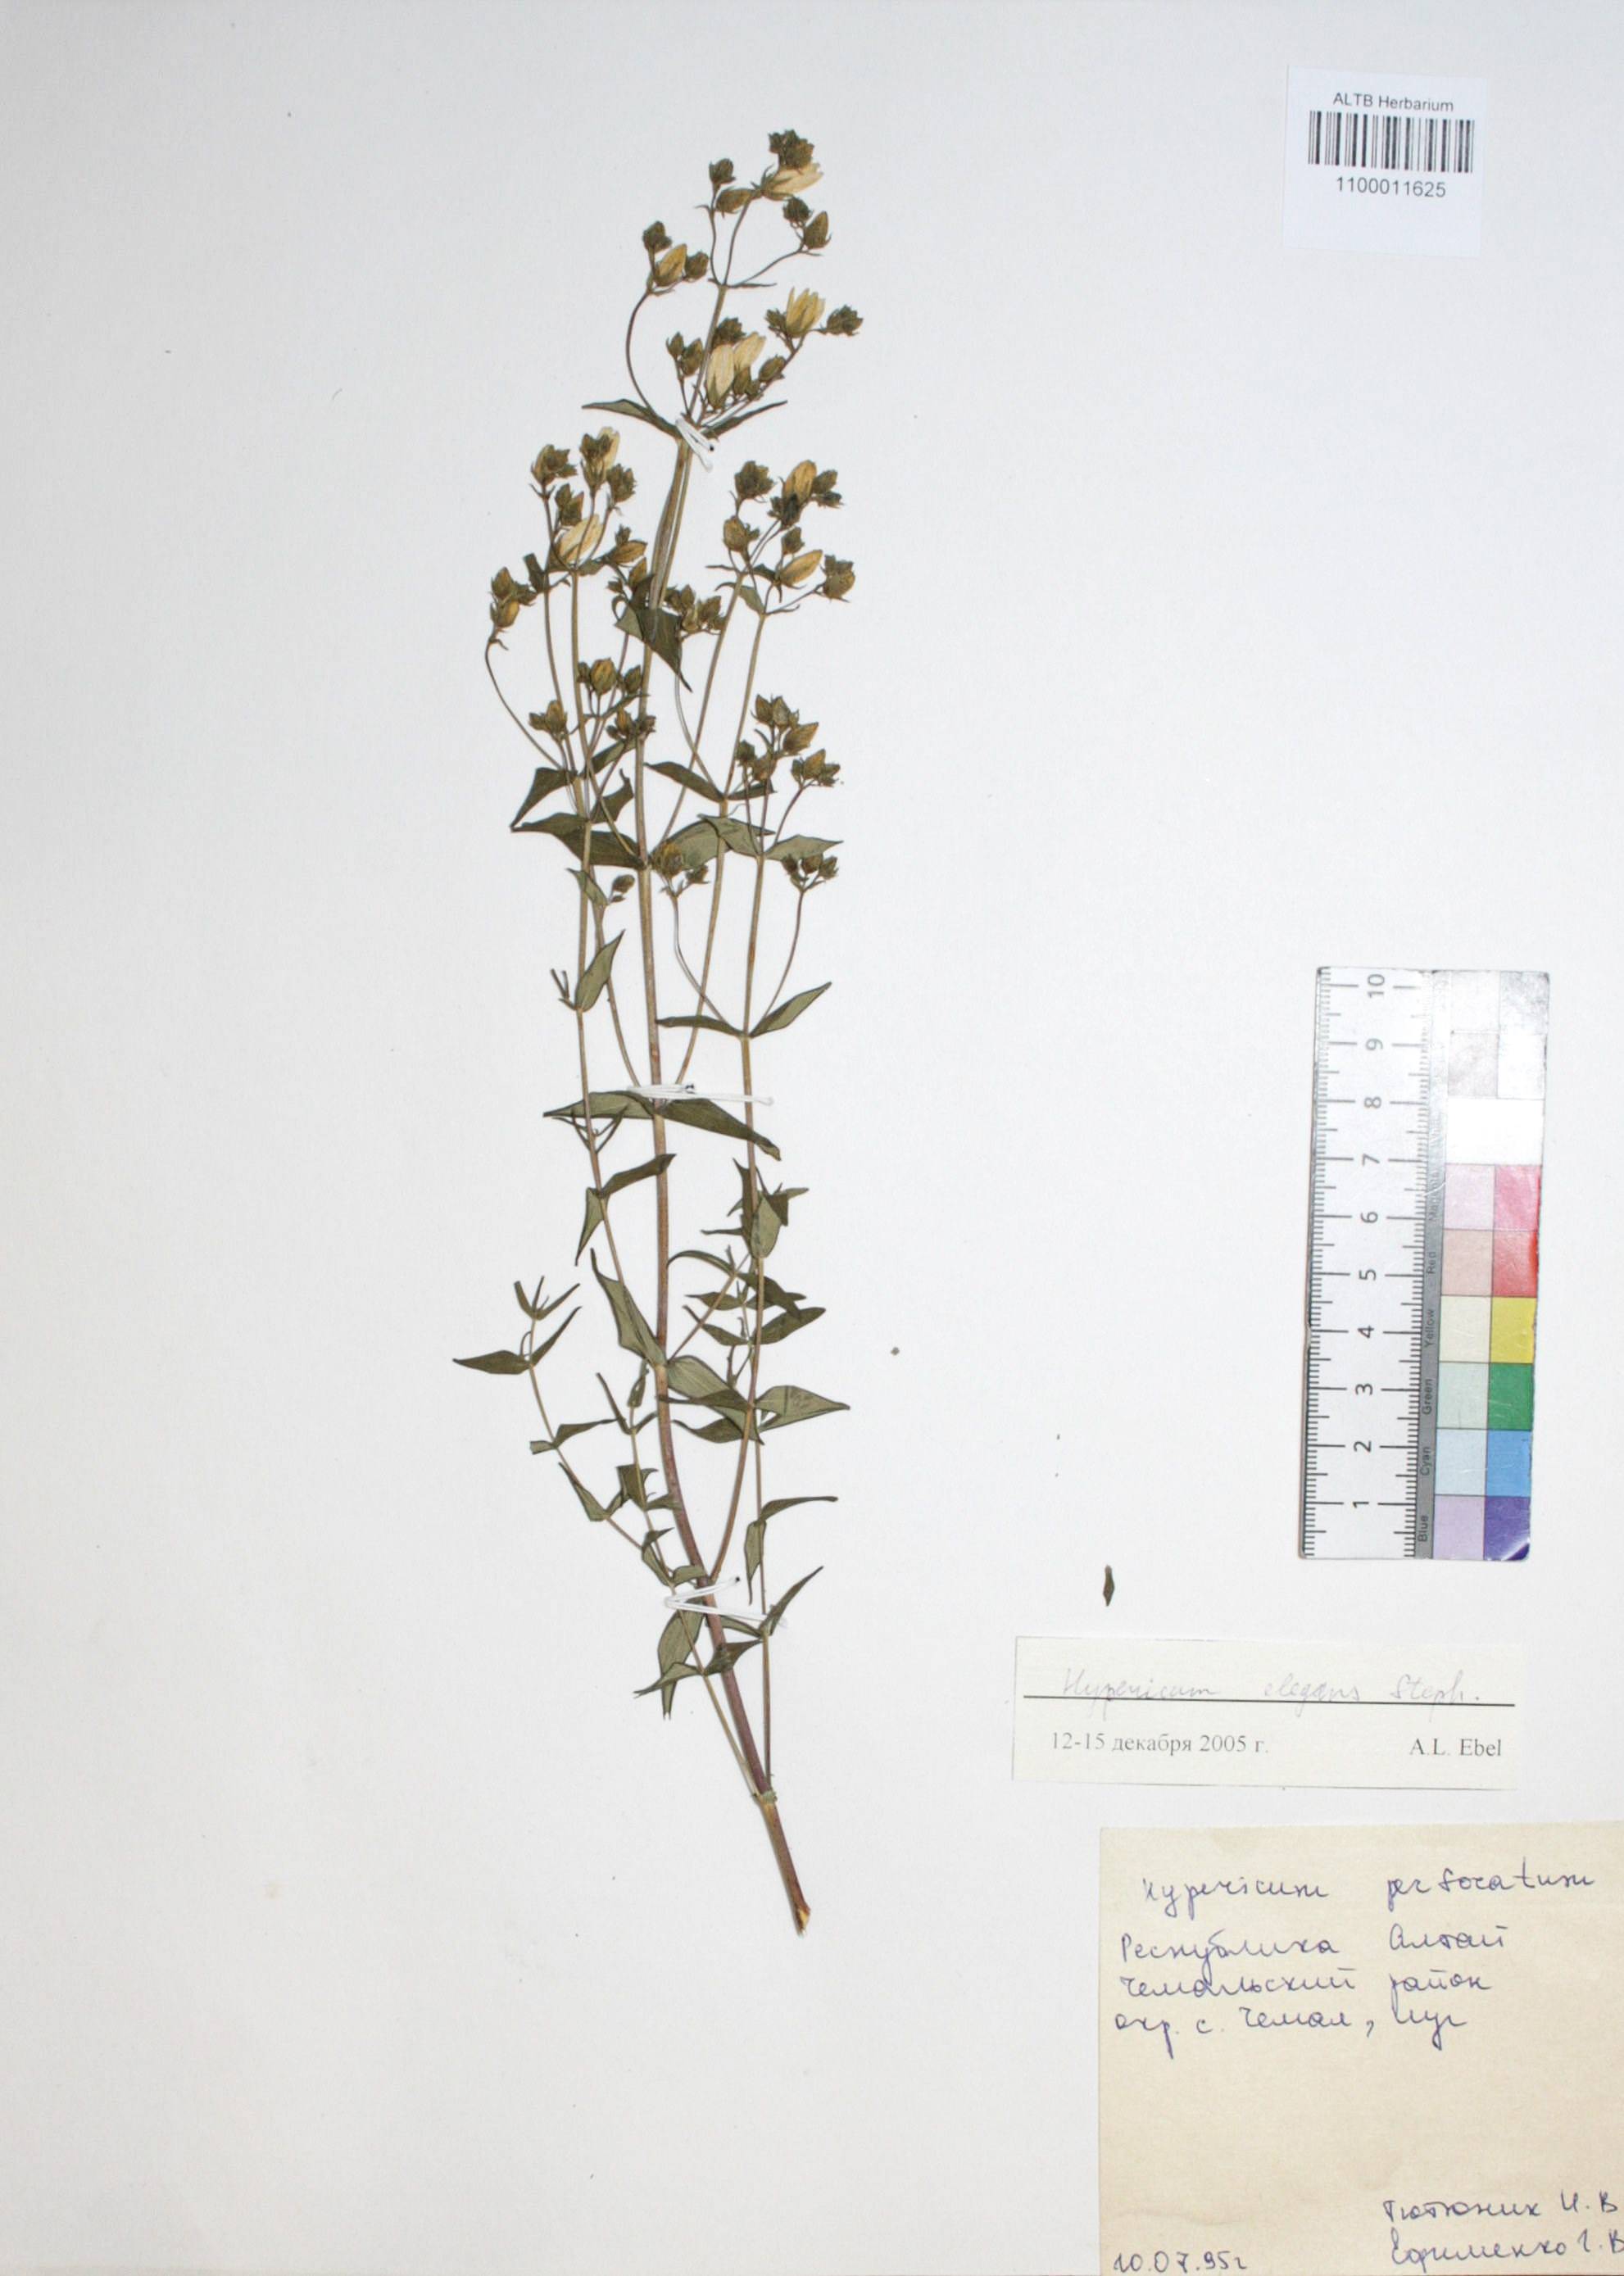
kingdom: Plantae
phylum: Tracheophyta
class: Magnoliopsida
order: Malpighiales
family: Hypericaceae
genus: Hypericum
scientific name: Hypericum elegans
